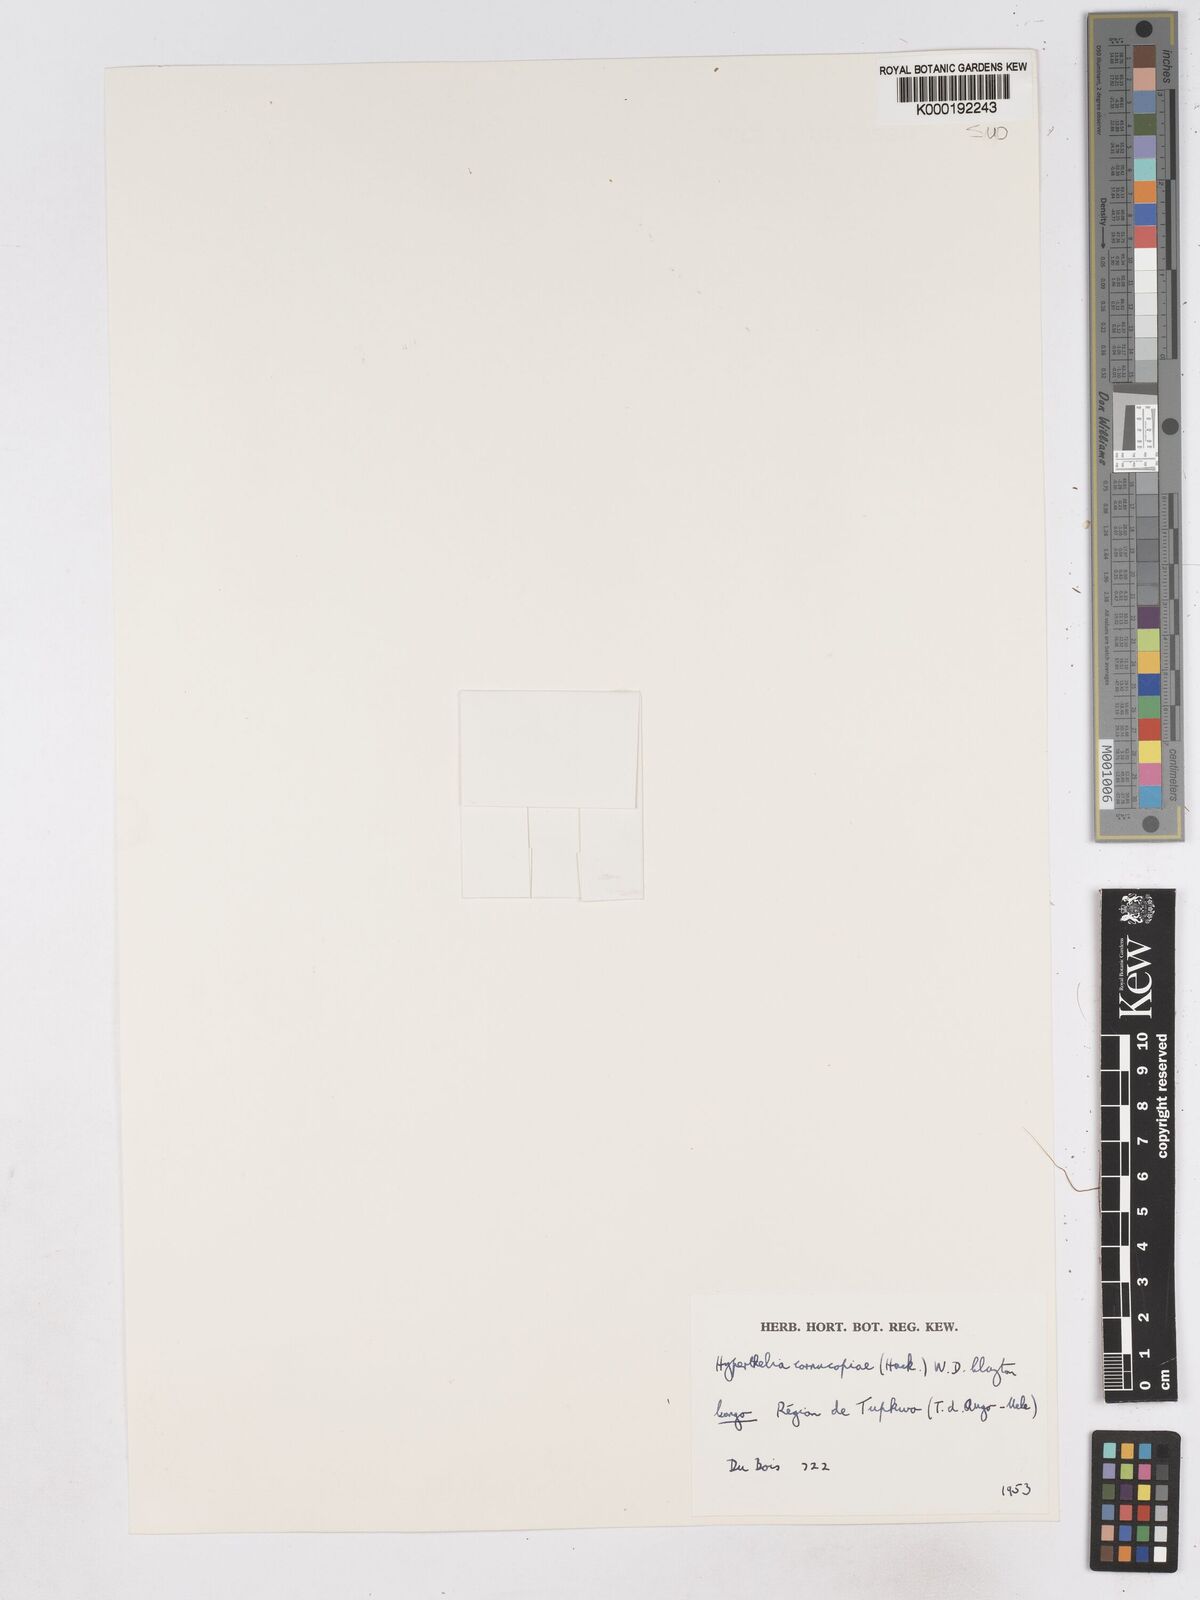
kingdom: Plantae
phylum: Tracheophyta
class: Liliopsida
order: Poales
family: Poaceae
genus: Hyperthelia
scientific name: Hyperthelia cornucopiae
